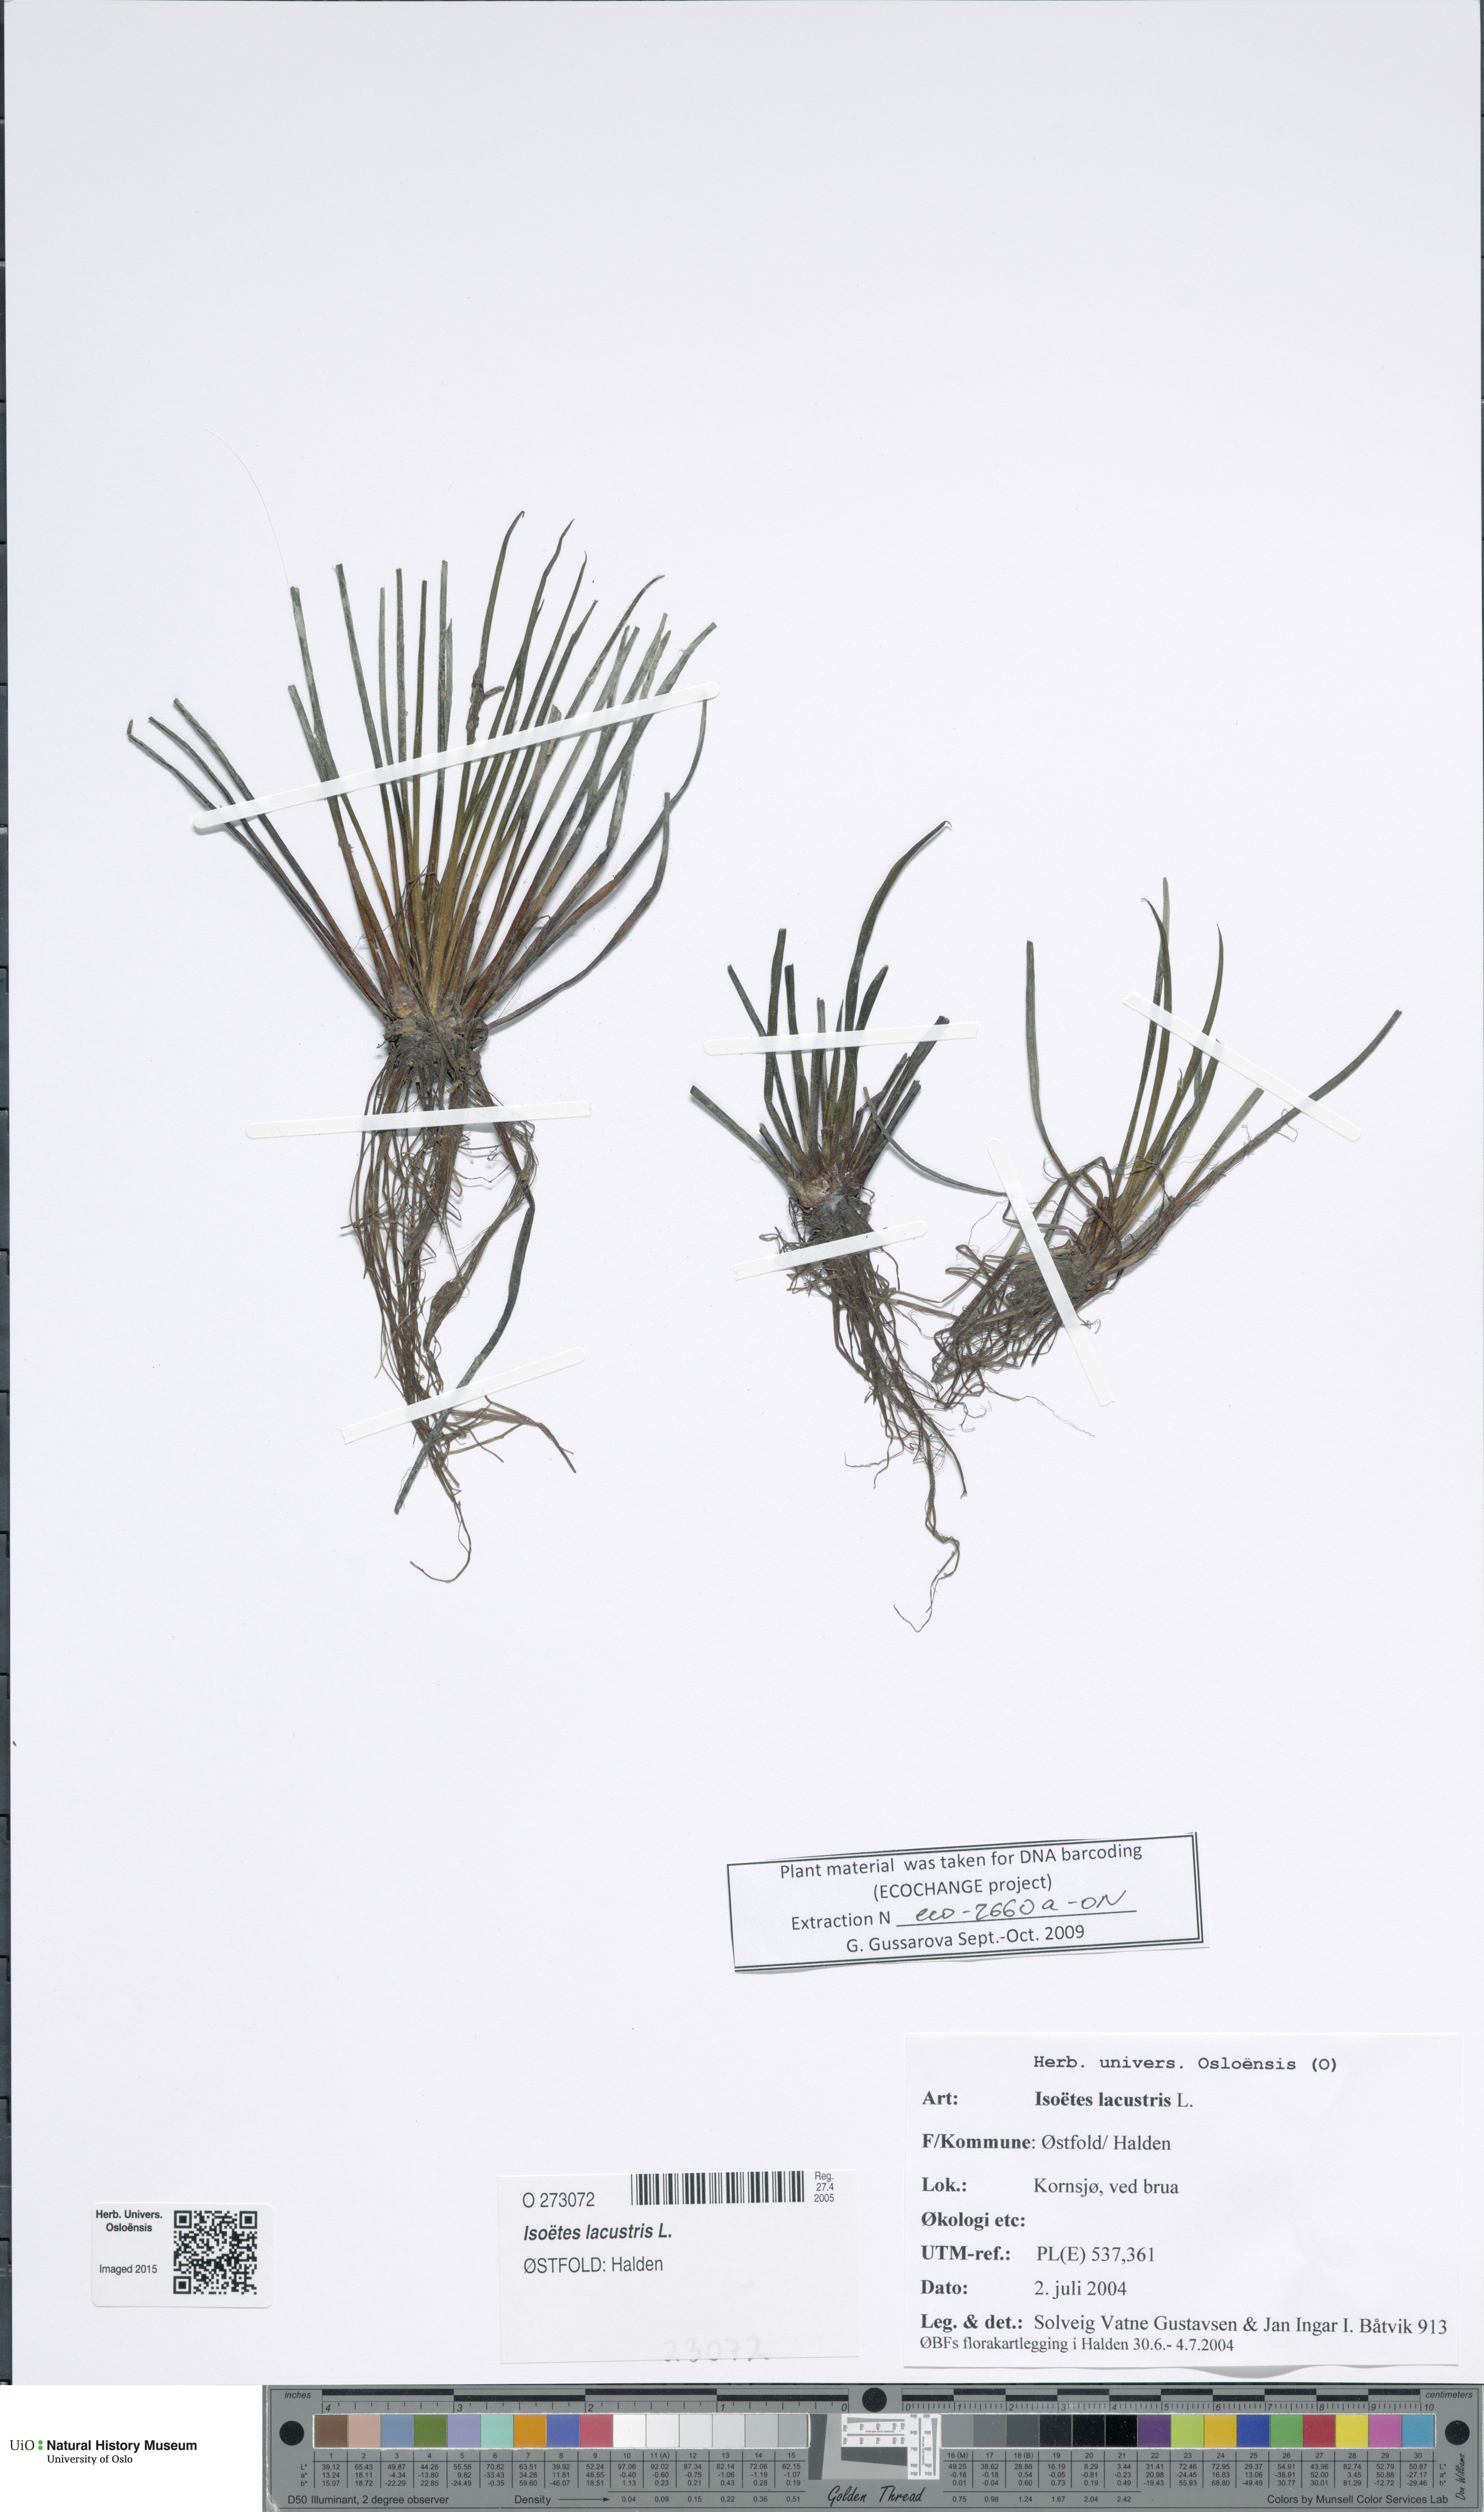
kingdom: Plantae
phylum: Tracheophyta
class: Lycopodiopsida
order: Isoetales
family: Isoetaceae
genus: Isoetes
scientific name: Isoetes lacustris
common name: Common quillwort
